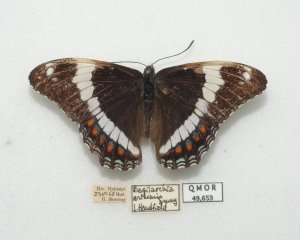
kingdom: Animalia
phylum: Arthropoda
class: Insecta
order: Lepidoptera
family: Nymphalidae
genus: Limenitis
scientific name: Limenitis arthemis
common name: Red-spotted Admiral
